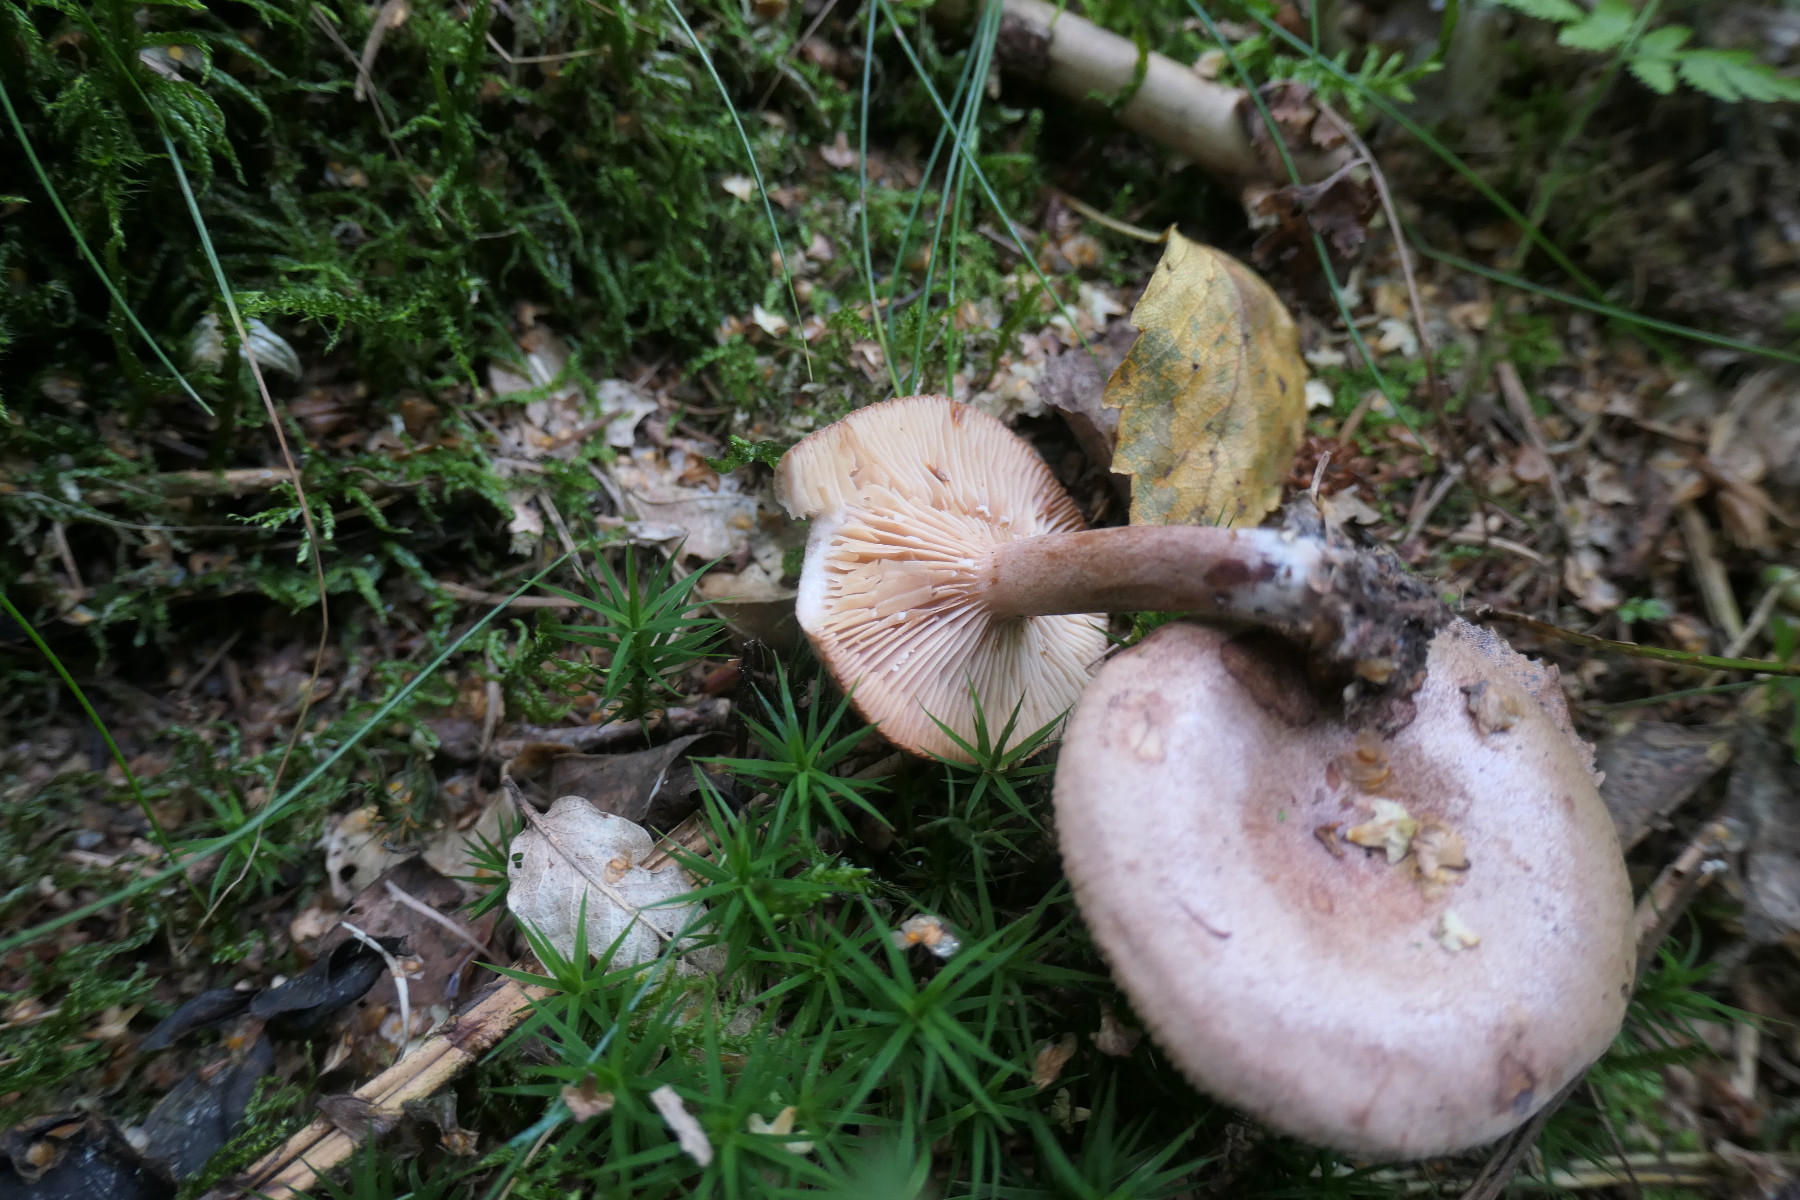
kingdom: Fungi
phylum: Basidiomycota
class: Agaricomycetes
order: Russulales
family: Russulaceae
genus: Lactarius
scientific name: Lactarius quietus
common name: ege-mælkehat
